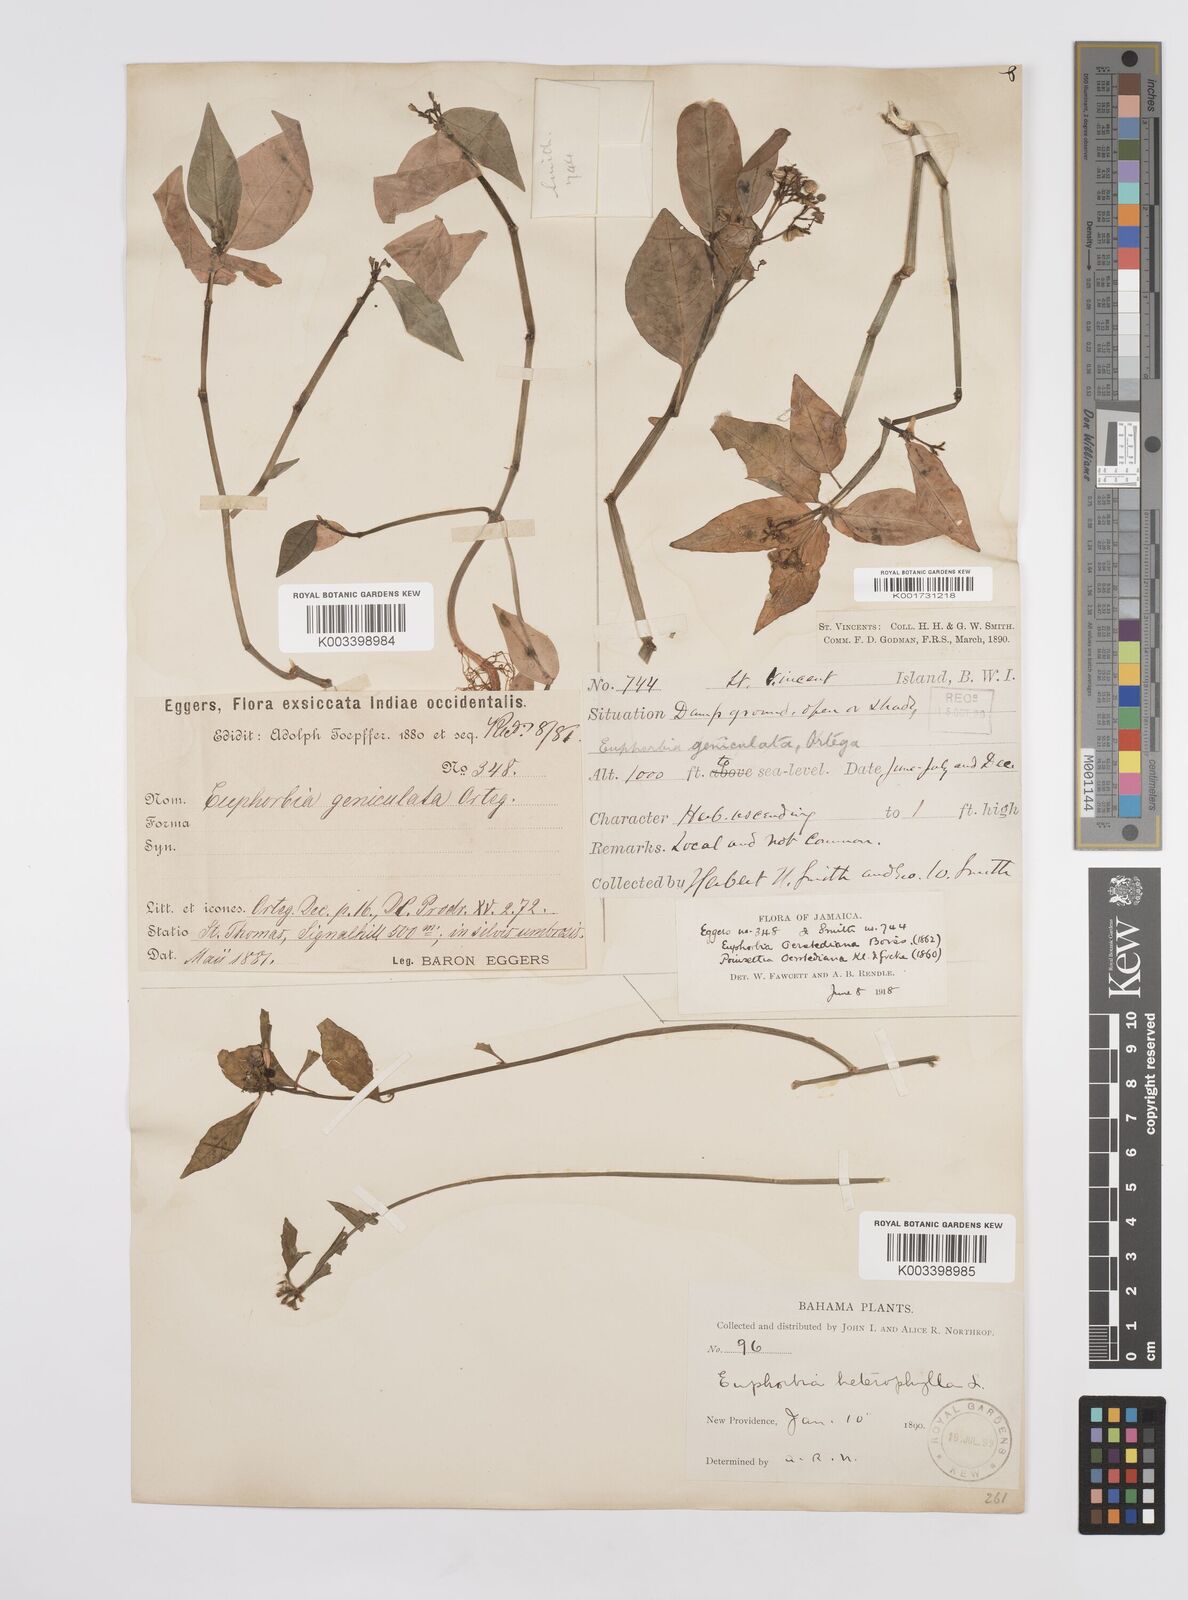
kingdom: Plantae
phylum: Tracheophyta
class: Magnoliopsida
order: Malpighiales
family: Euphorbiaceae
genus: Euphorbia
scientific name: Euphorbia heterophylla
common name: Mexican fireplant
